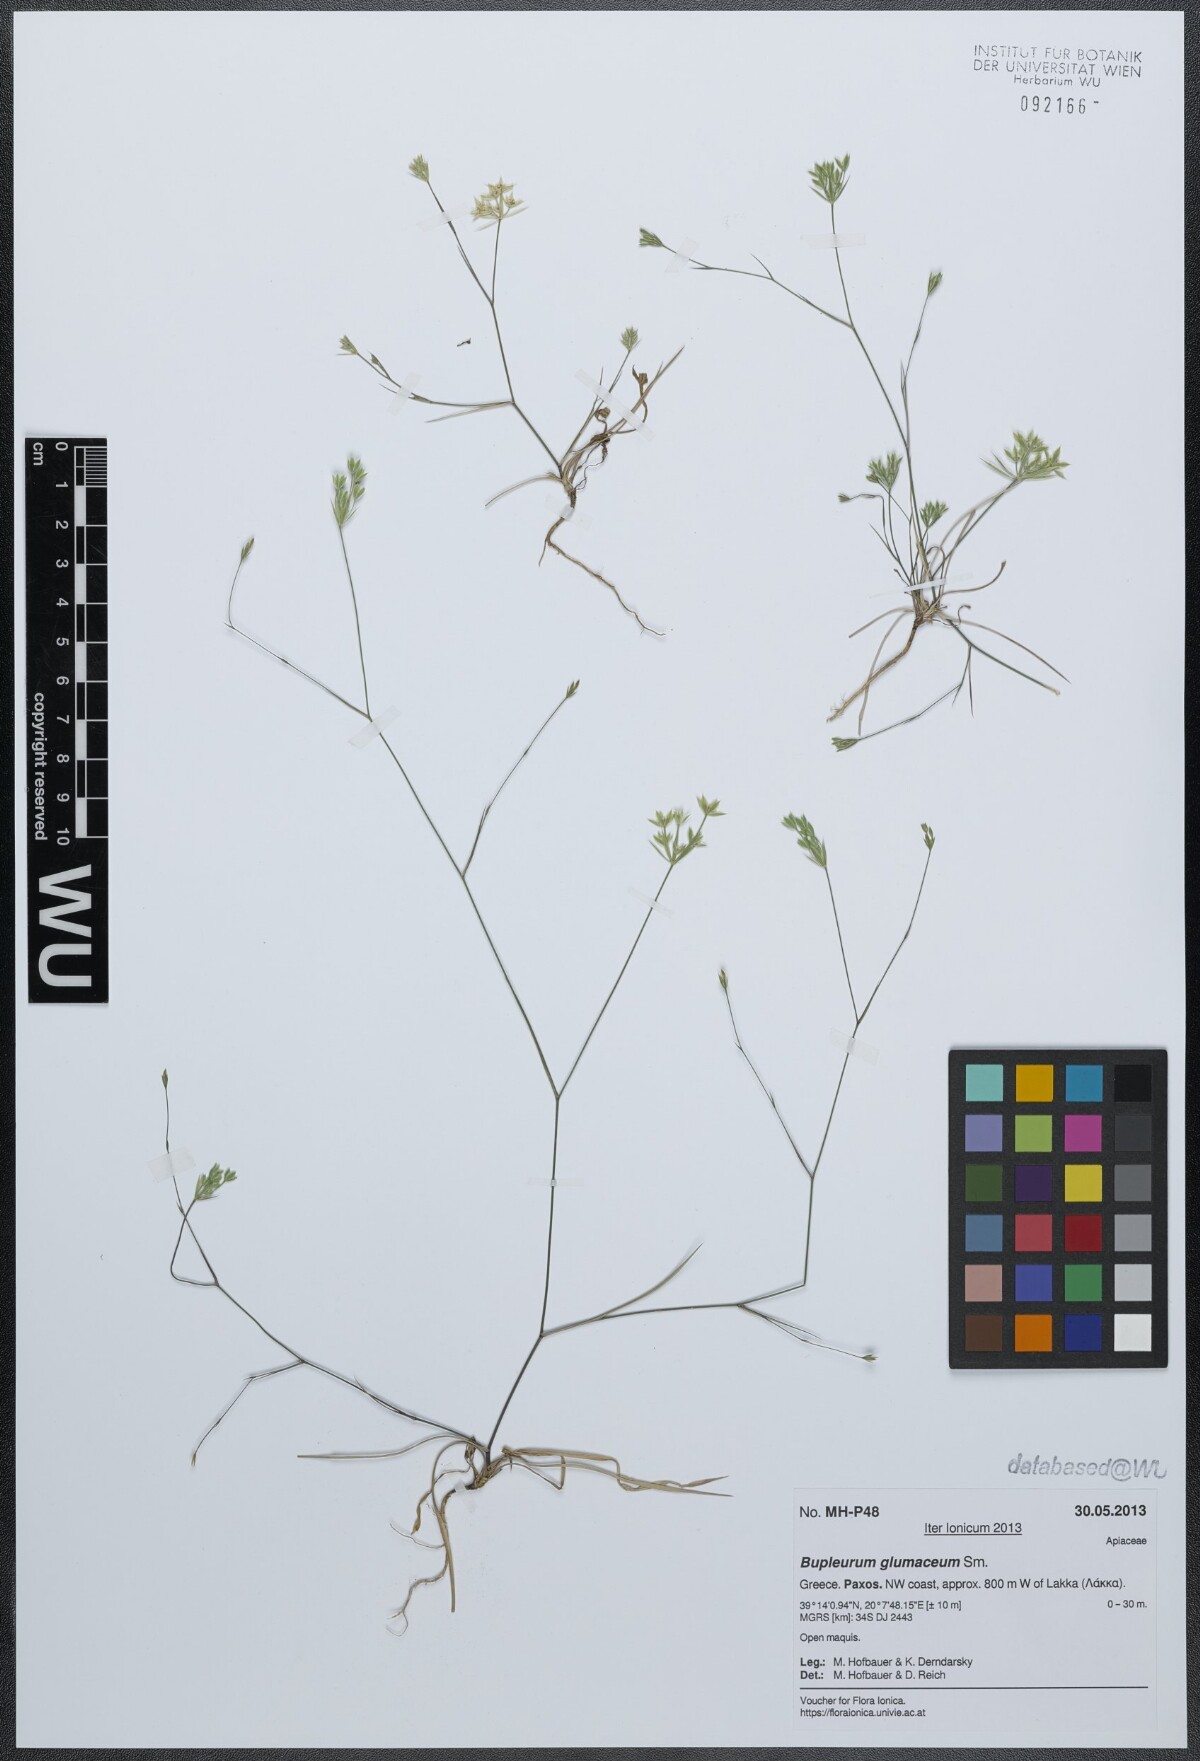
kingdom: Plantae
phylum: Tracheophyta
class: Magnoliopsida
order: Apiales
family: Apiaceae
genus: Bupleurum
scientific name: Bupleurum glumaceum
